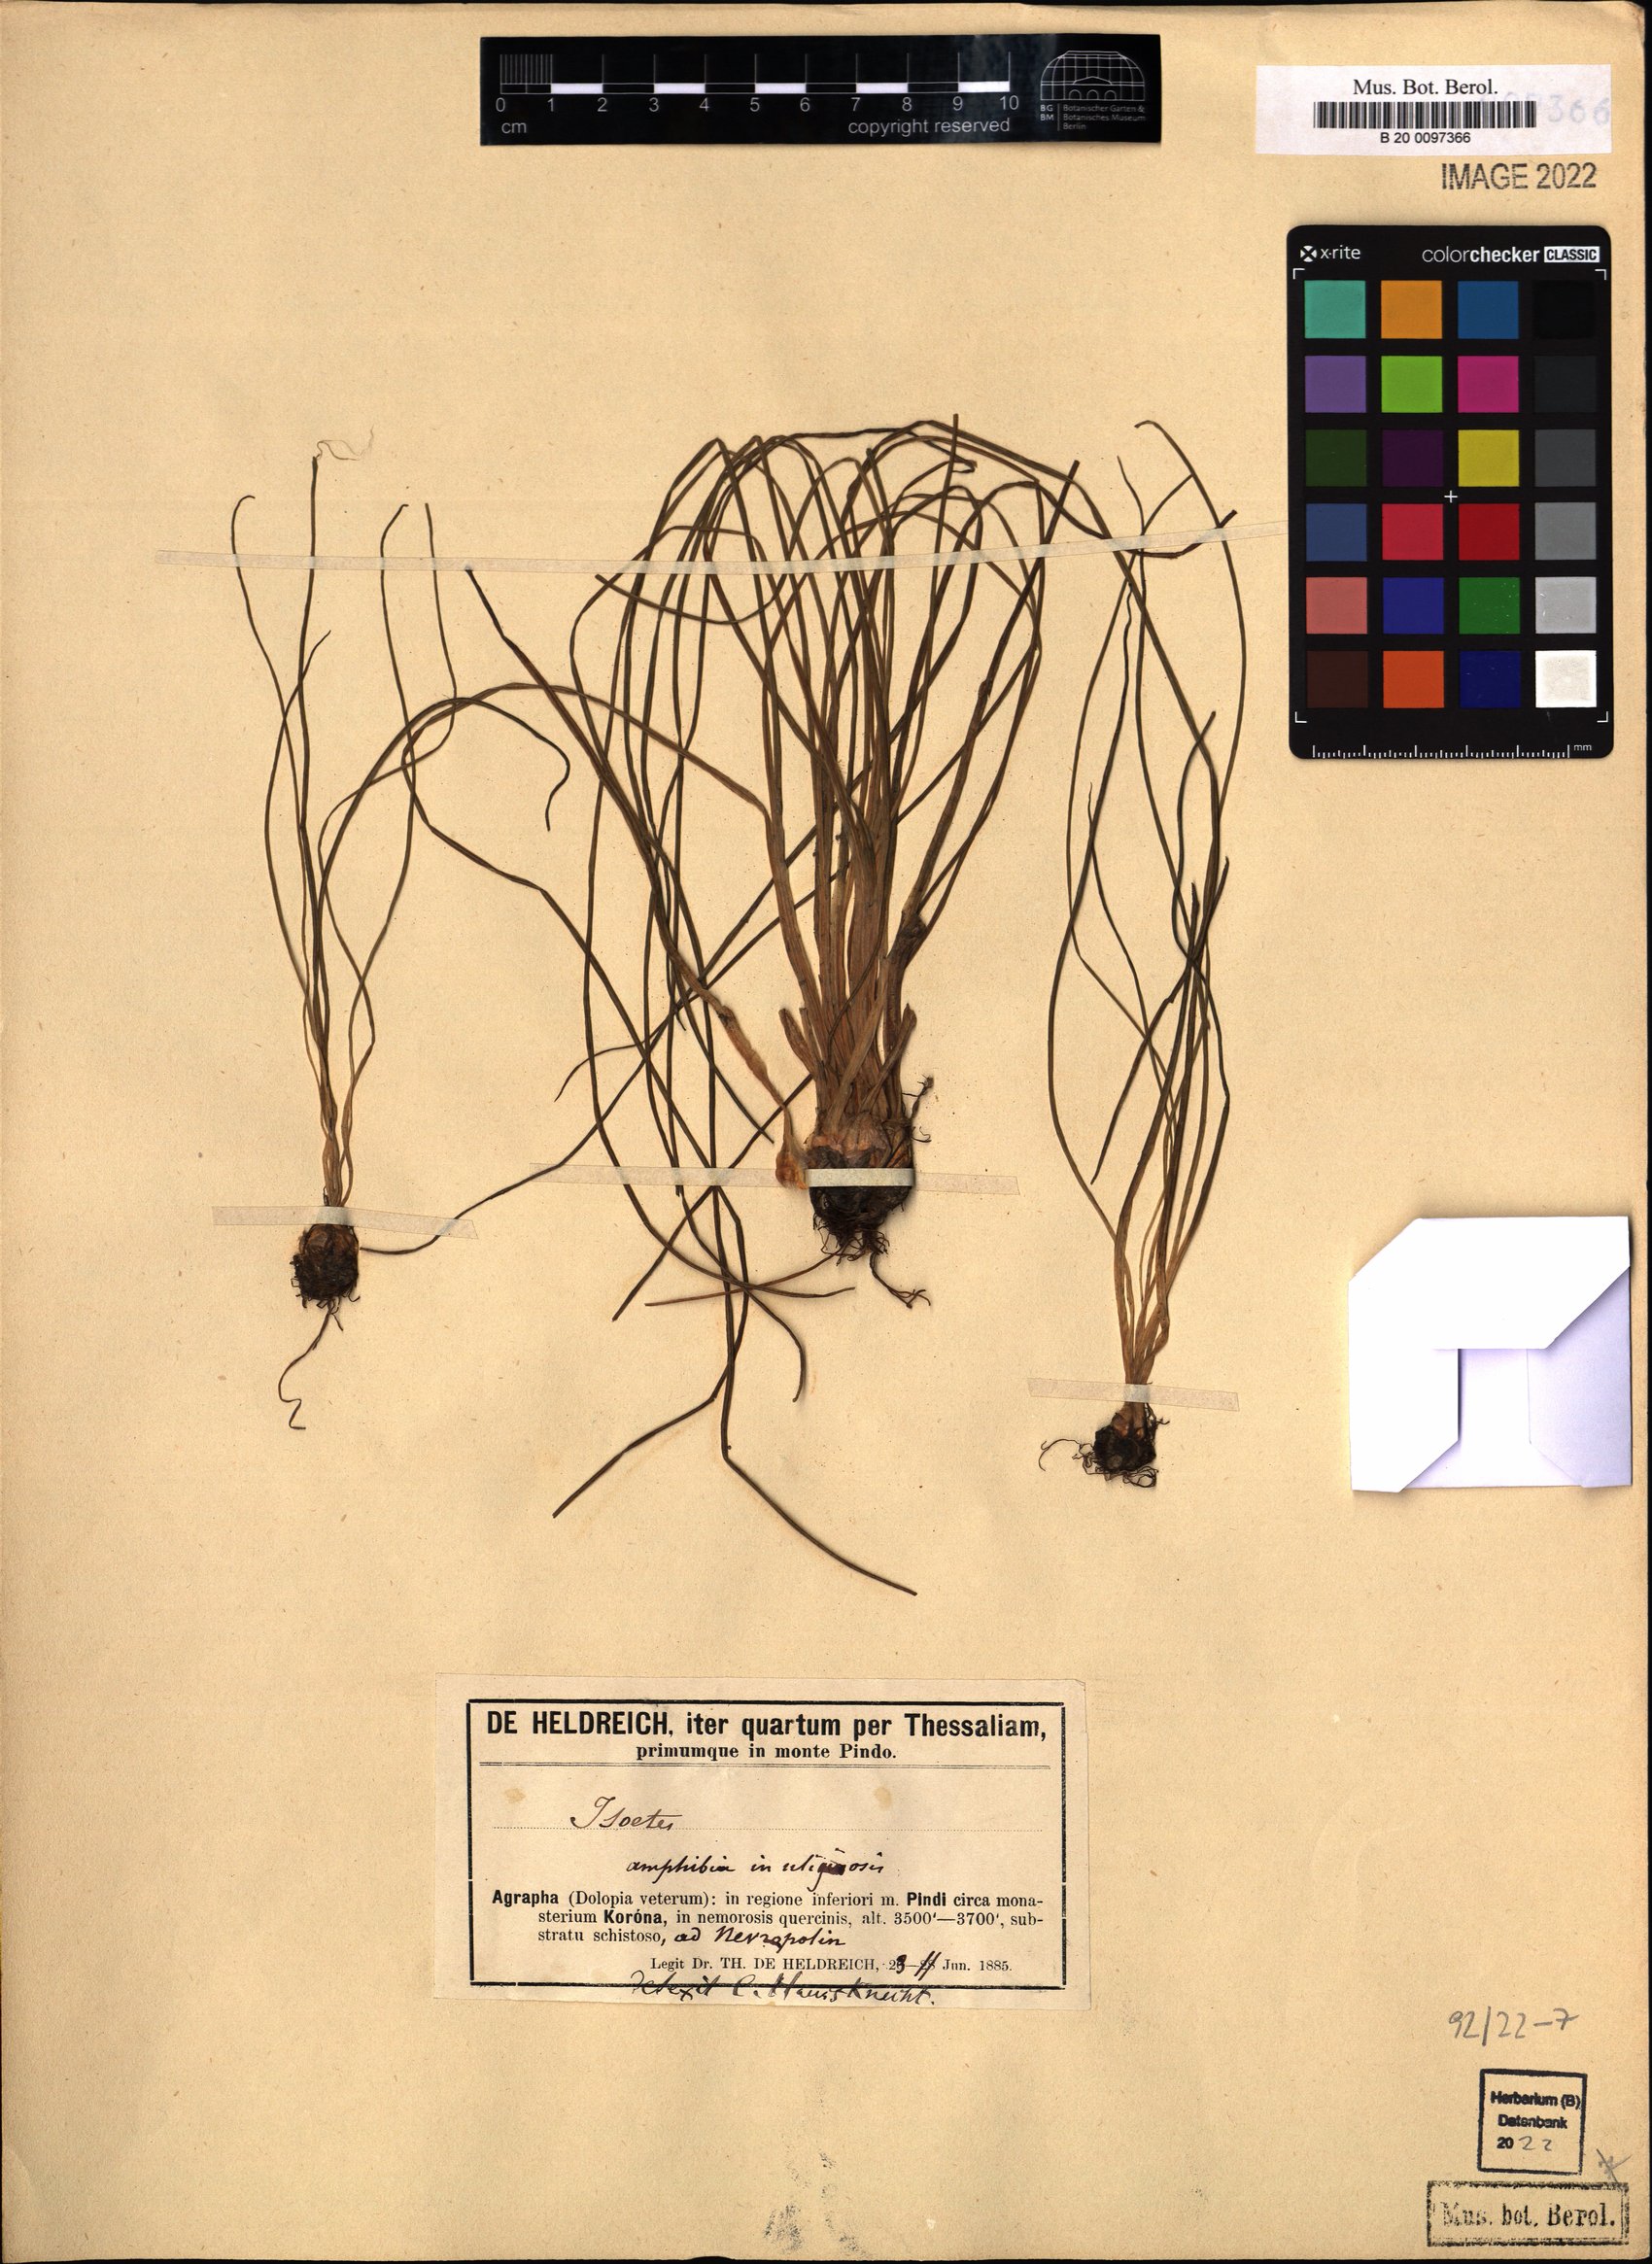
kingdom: Plantae
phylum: Tracheophyta
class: Lycopodiopsida
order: Isoetales
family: Isoetaceae
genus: Isoetes
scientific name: Isoetes
